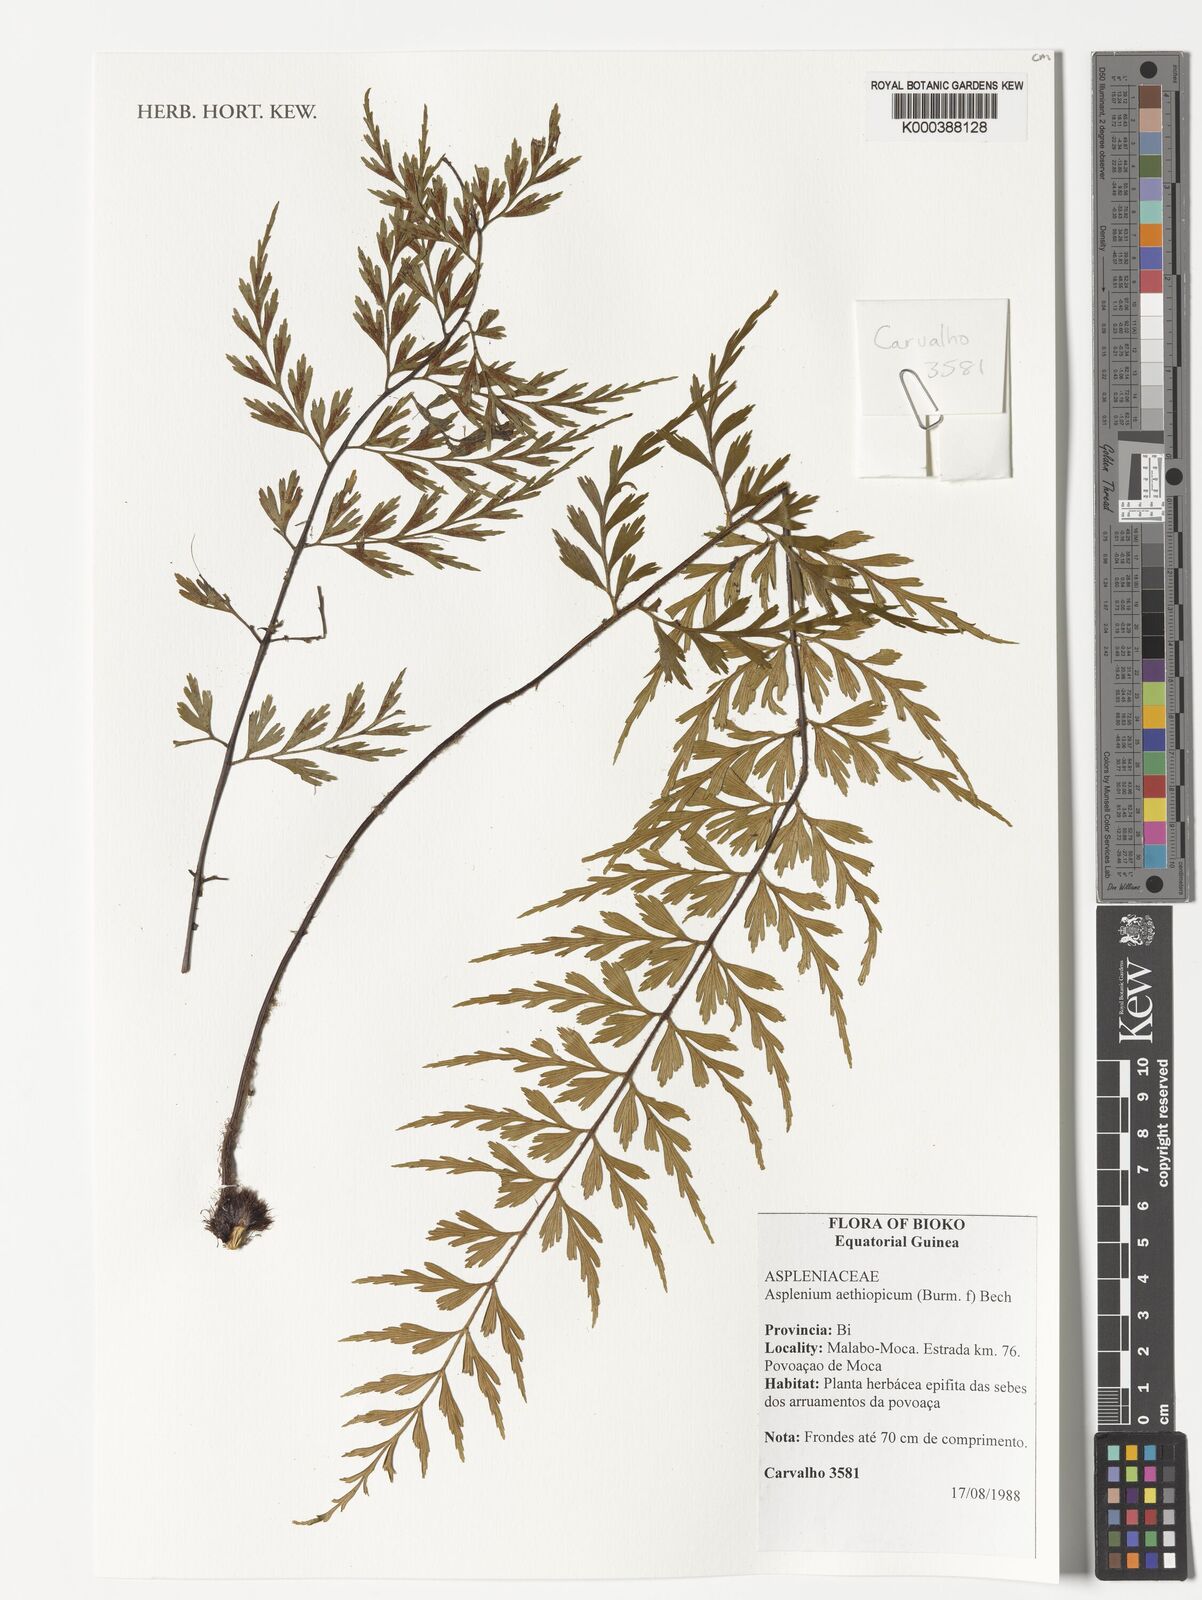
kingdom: Plantae
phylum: Tracheophyta
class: Polypodiopsida
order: Polypodiales
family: Aspleniaceae
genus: Asplenium
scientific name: Asplenium aethiopicum
